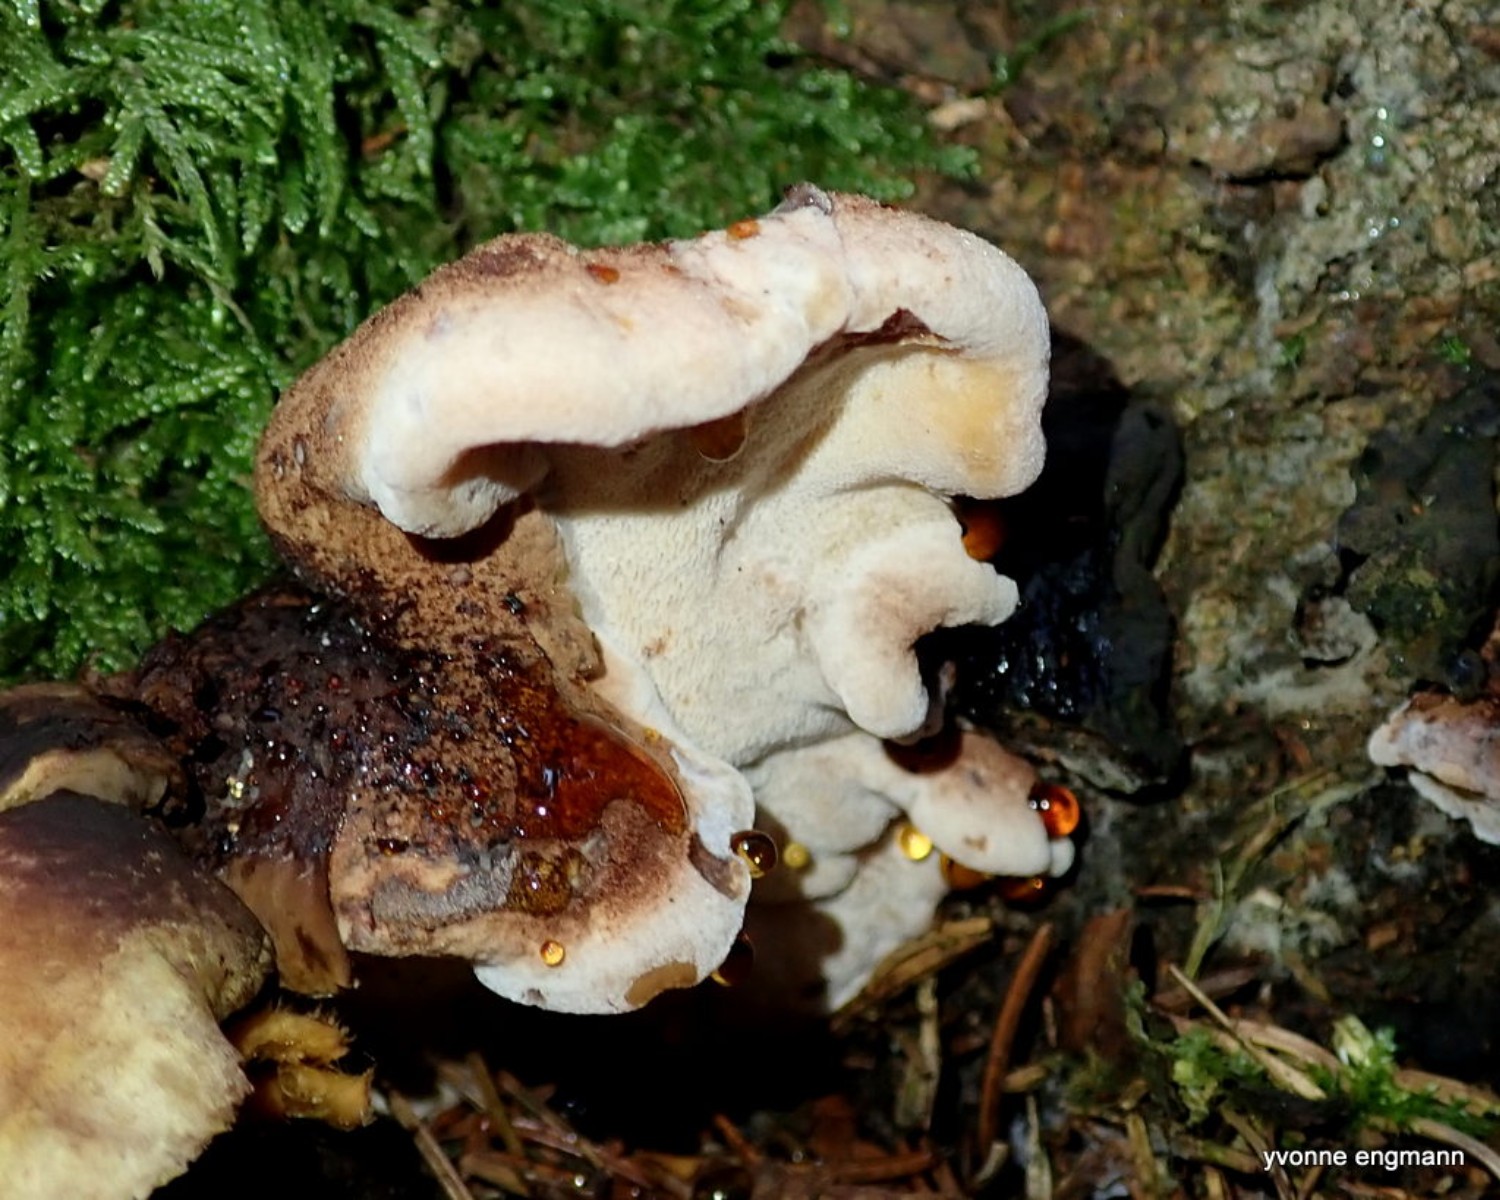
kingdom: Fungi
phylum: Basidiomycota
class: Agaricomycetes
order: Polyporales
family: Ischnodermataceae
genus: Ischnoderma
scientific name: Ischnoderma benzoinum
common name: gran-tjæreporesvamp
